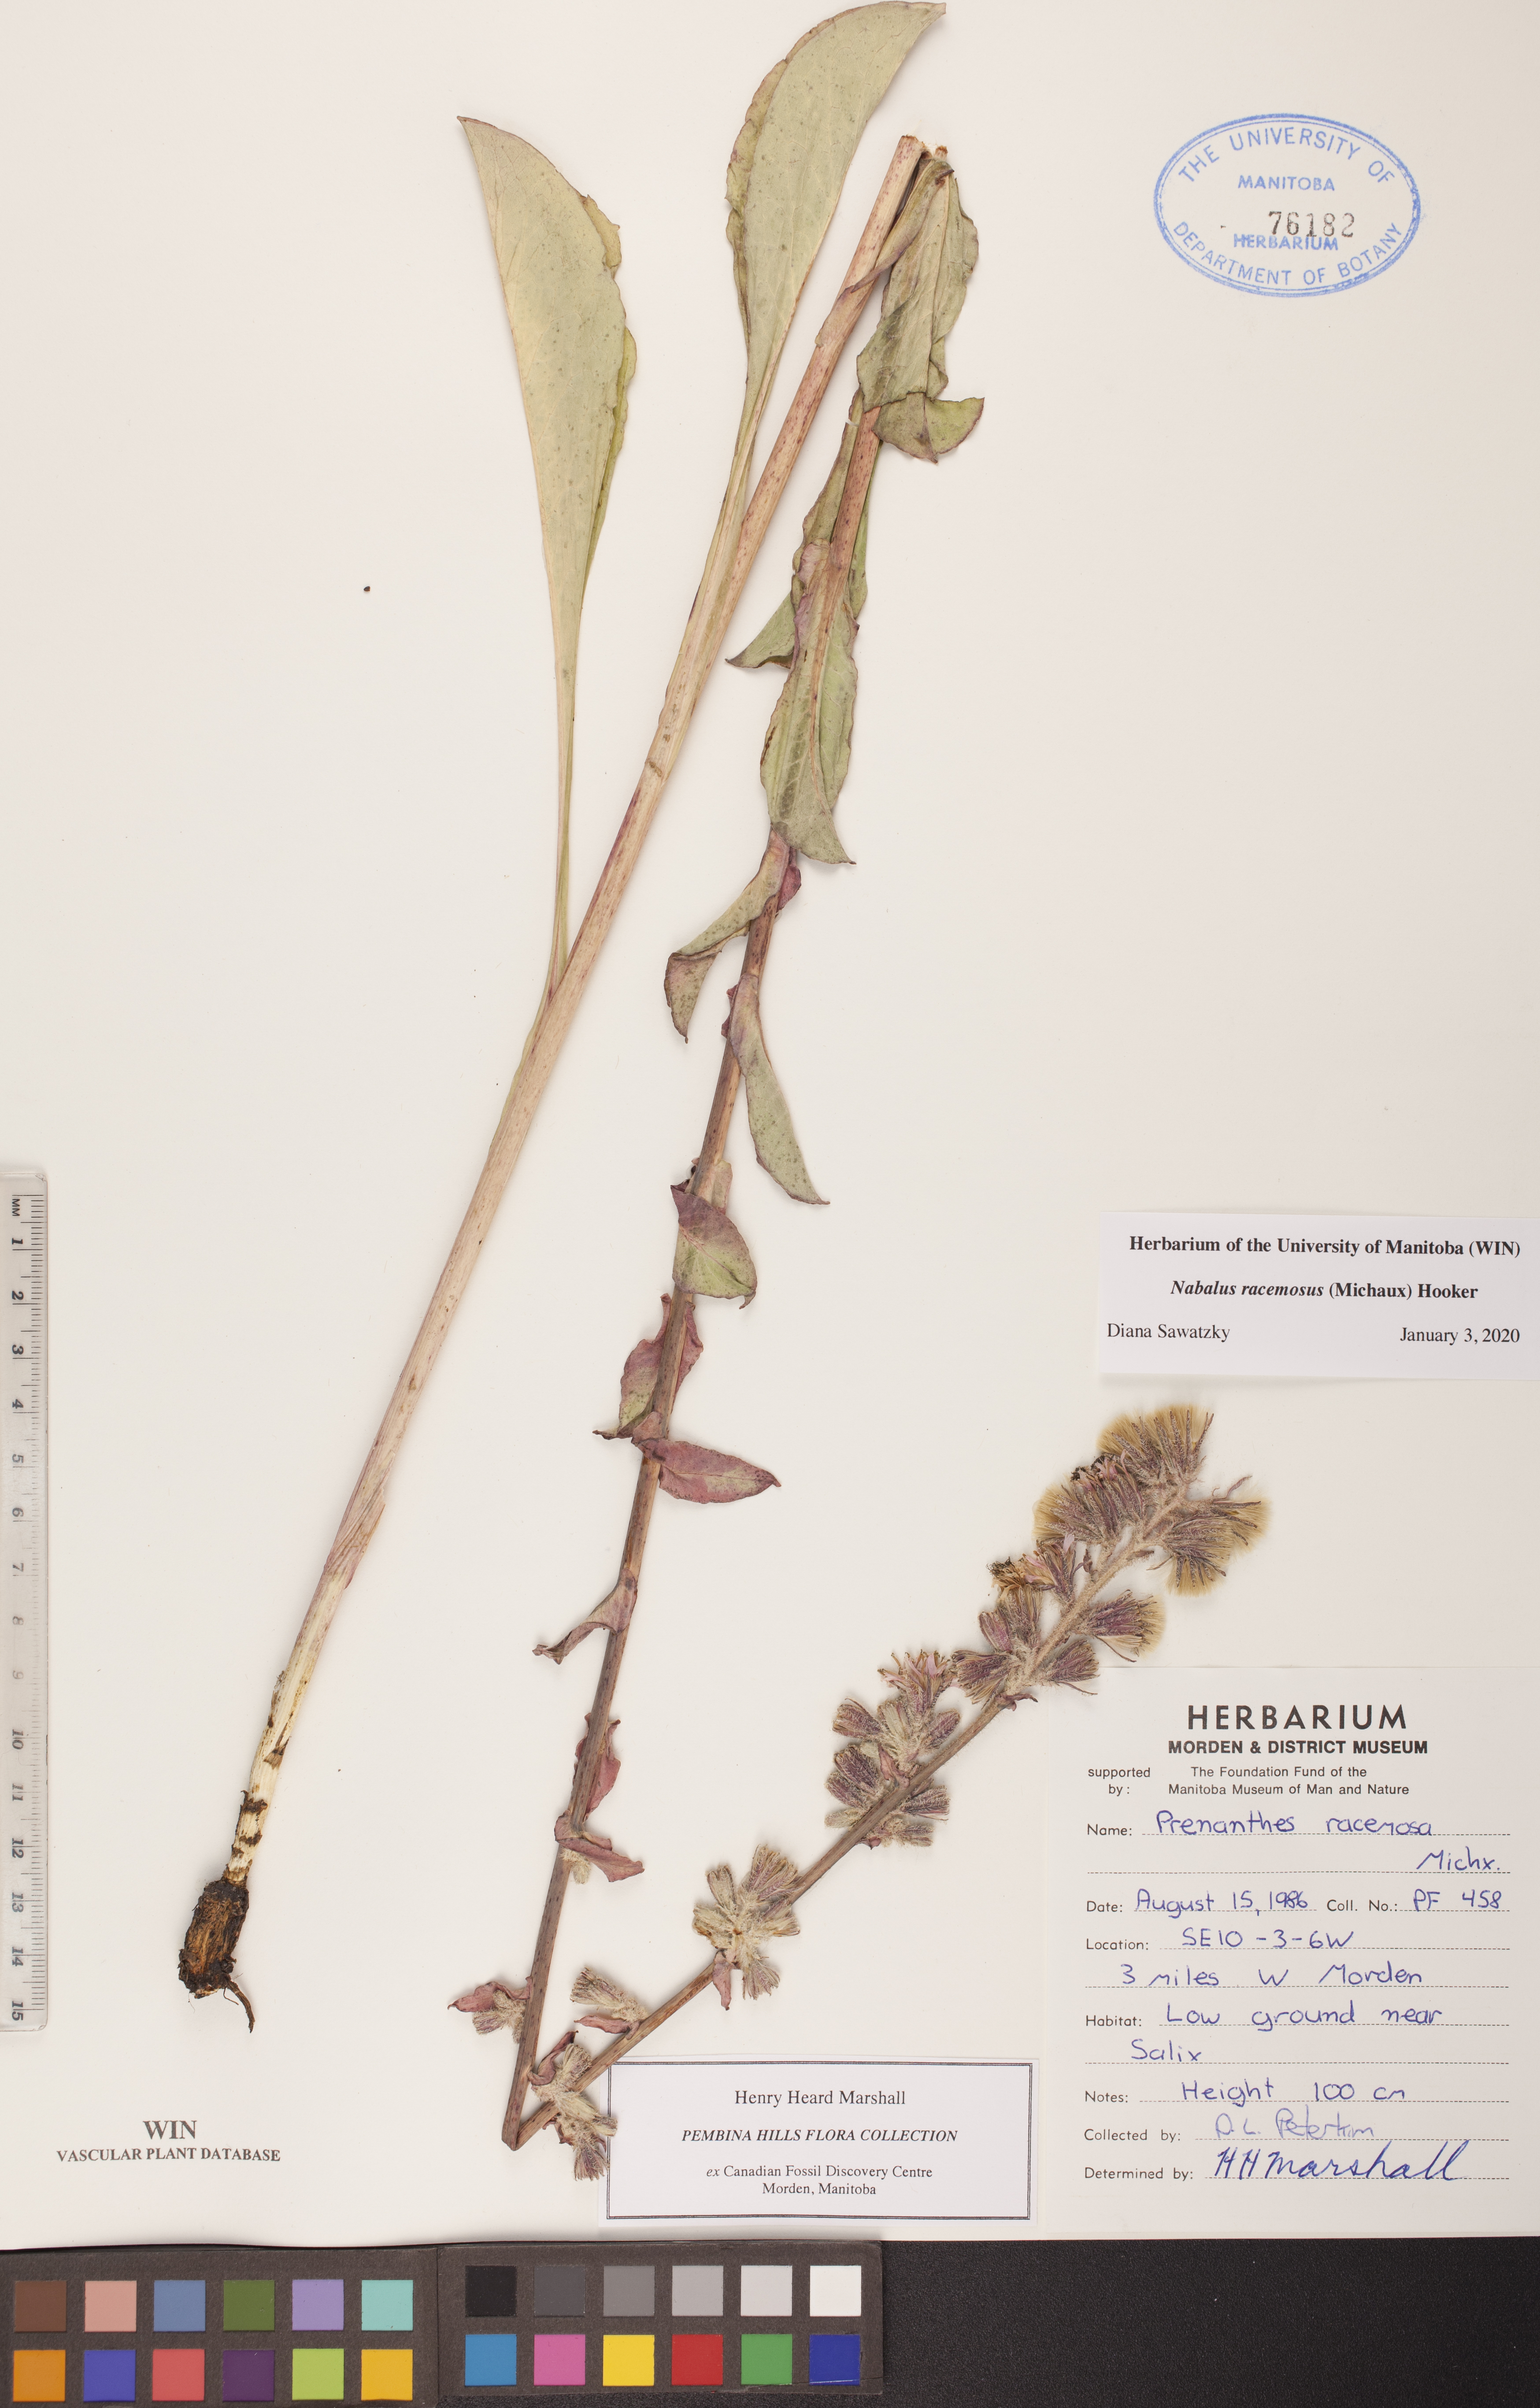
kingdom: Plantae
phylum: Tracheophyta
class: Magnoliopsida
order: Asterales
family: Asteraceae
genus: Nabalus
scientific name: Nabalus racemosus
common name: Glaucous white lettuce
